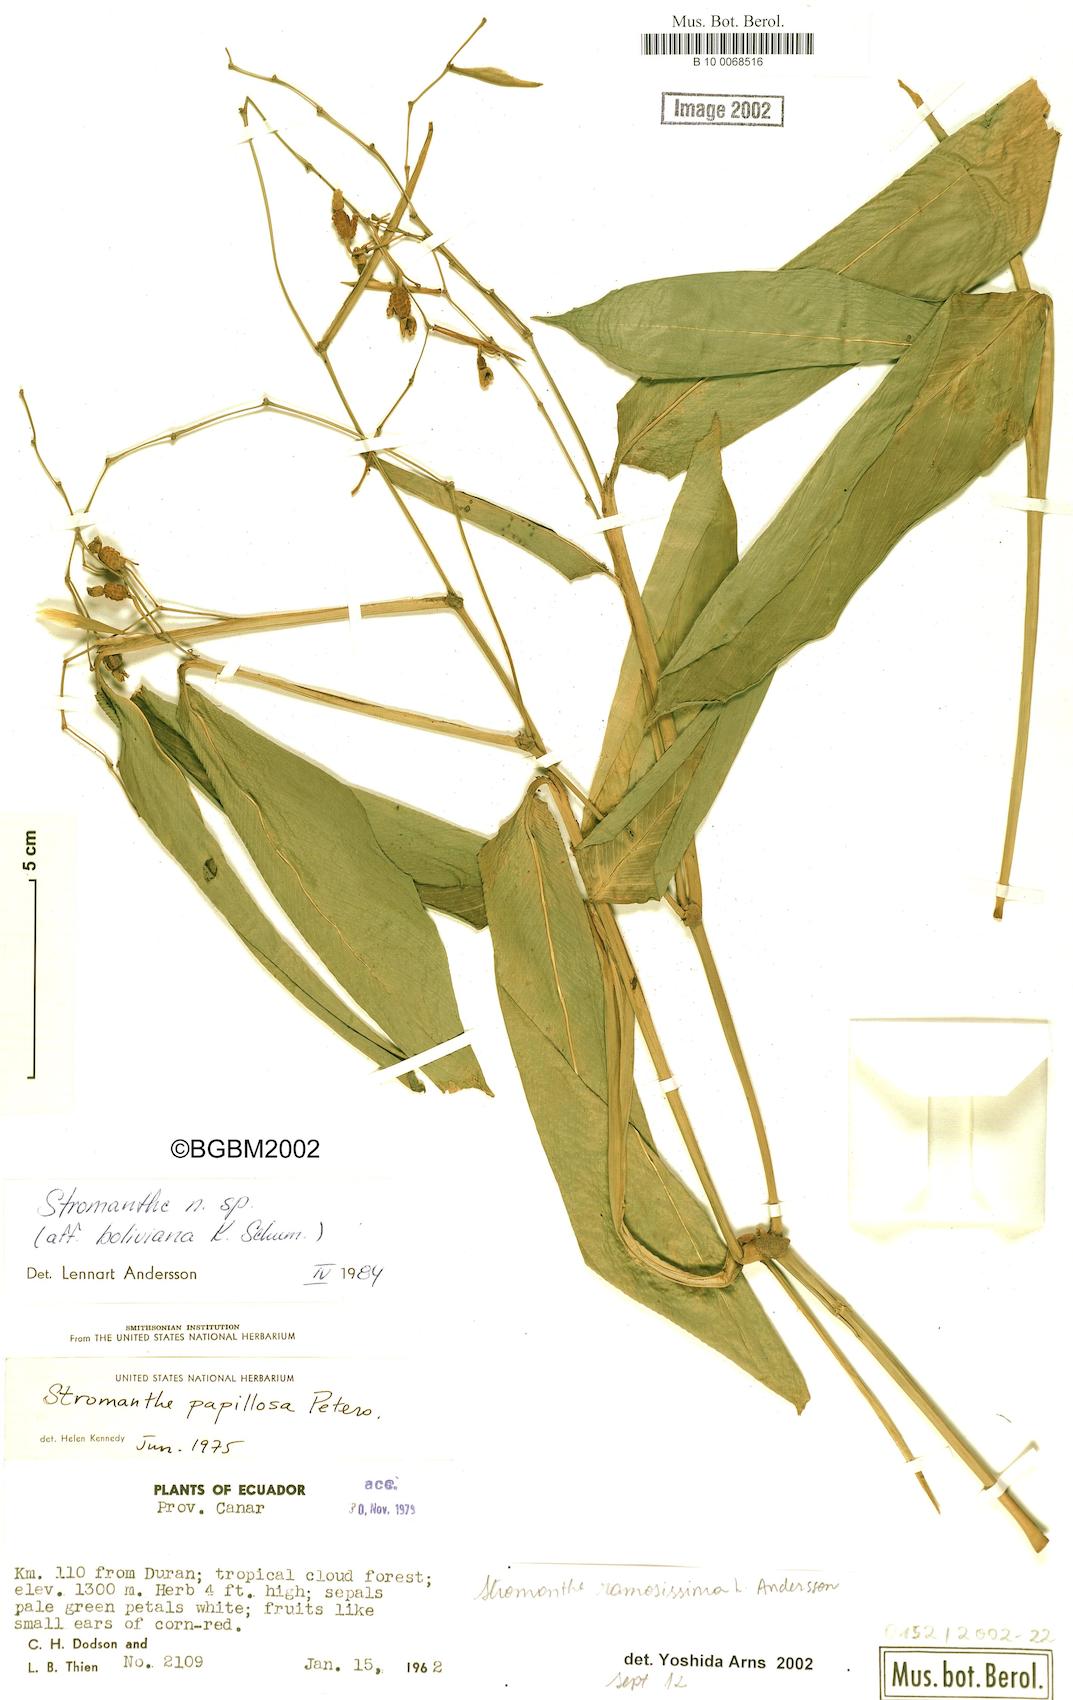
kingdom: Plantae
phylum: Tracheophyta
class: Liliopsida
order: Zingiberales
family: Marantaceae
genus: Stromanthe
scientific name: Stromanthe ramosissima
